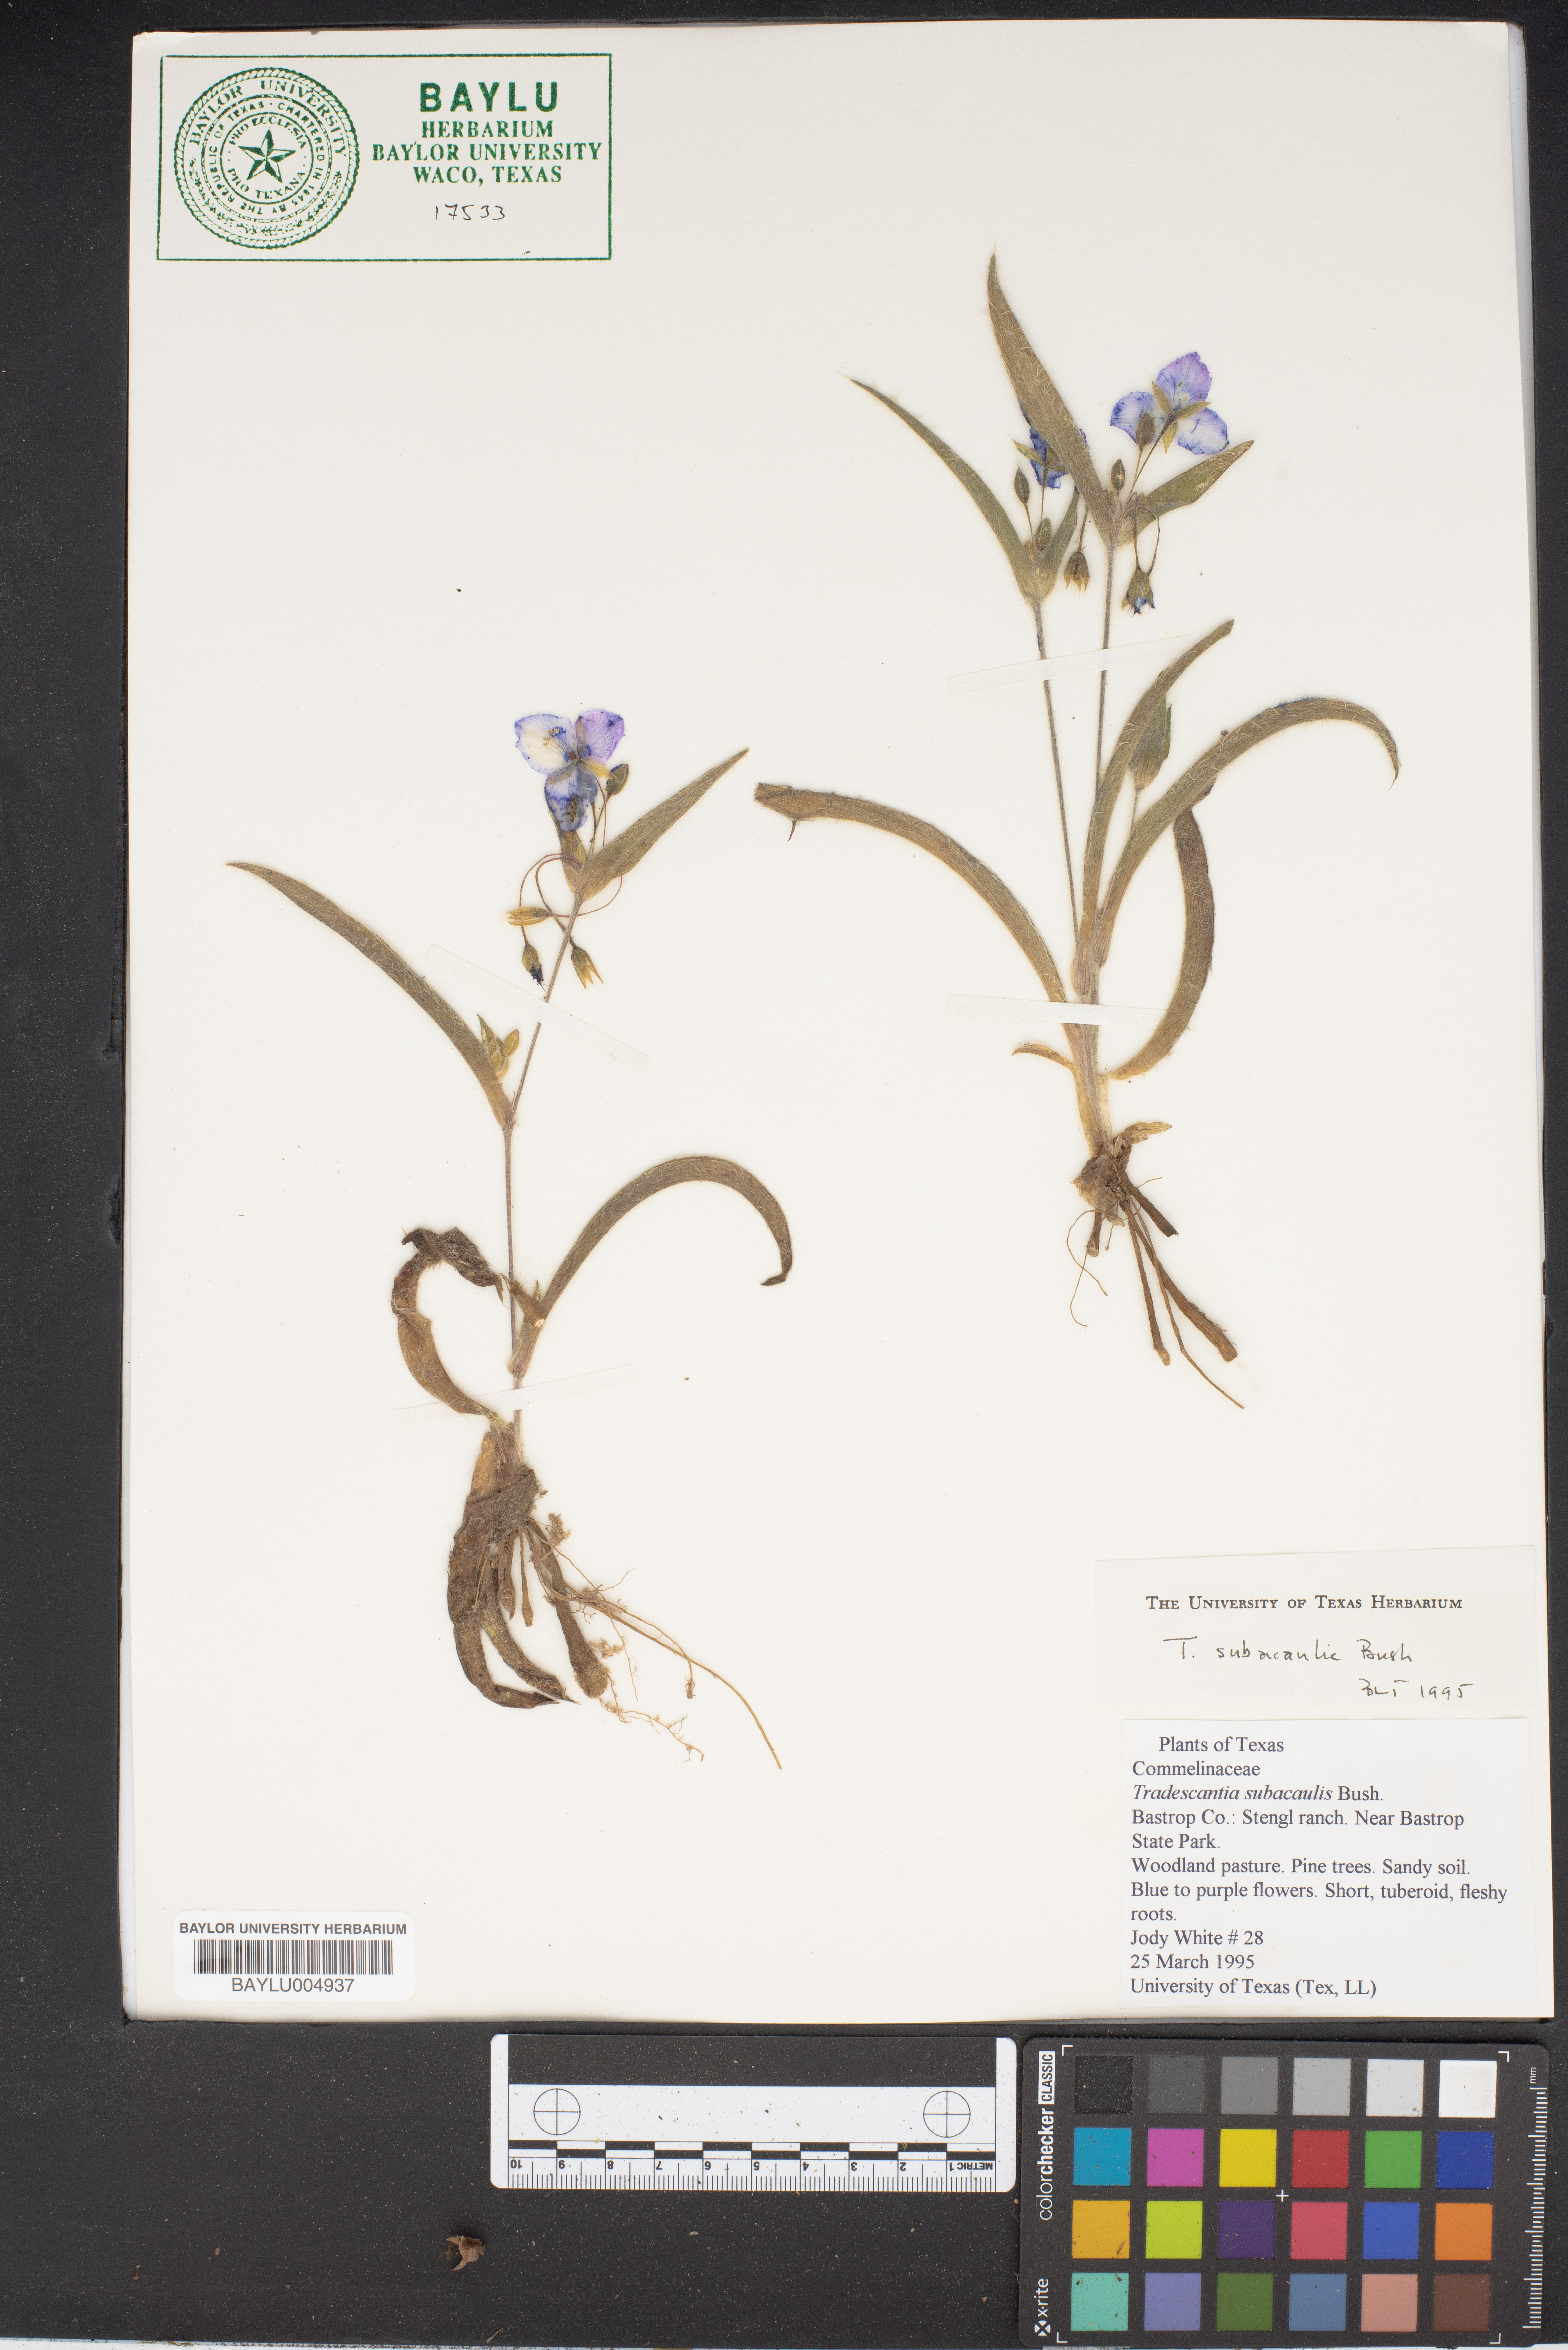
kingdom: Plantae
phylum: Tracheophyta
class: Liliopsida
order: Commelinales
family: Commelinaceae
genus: Tradescantia
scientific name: Tradescantia subacaulis
